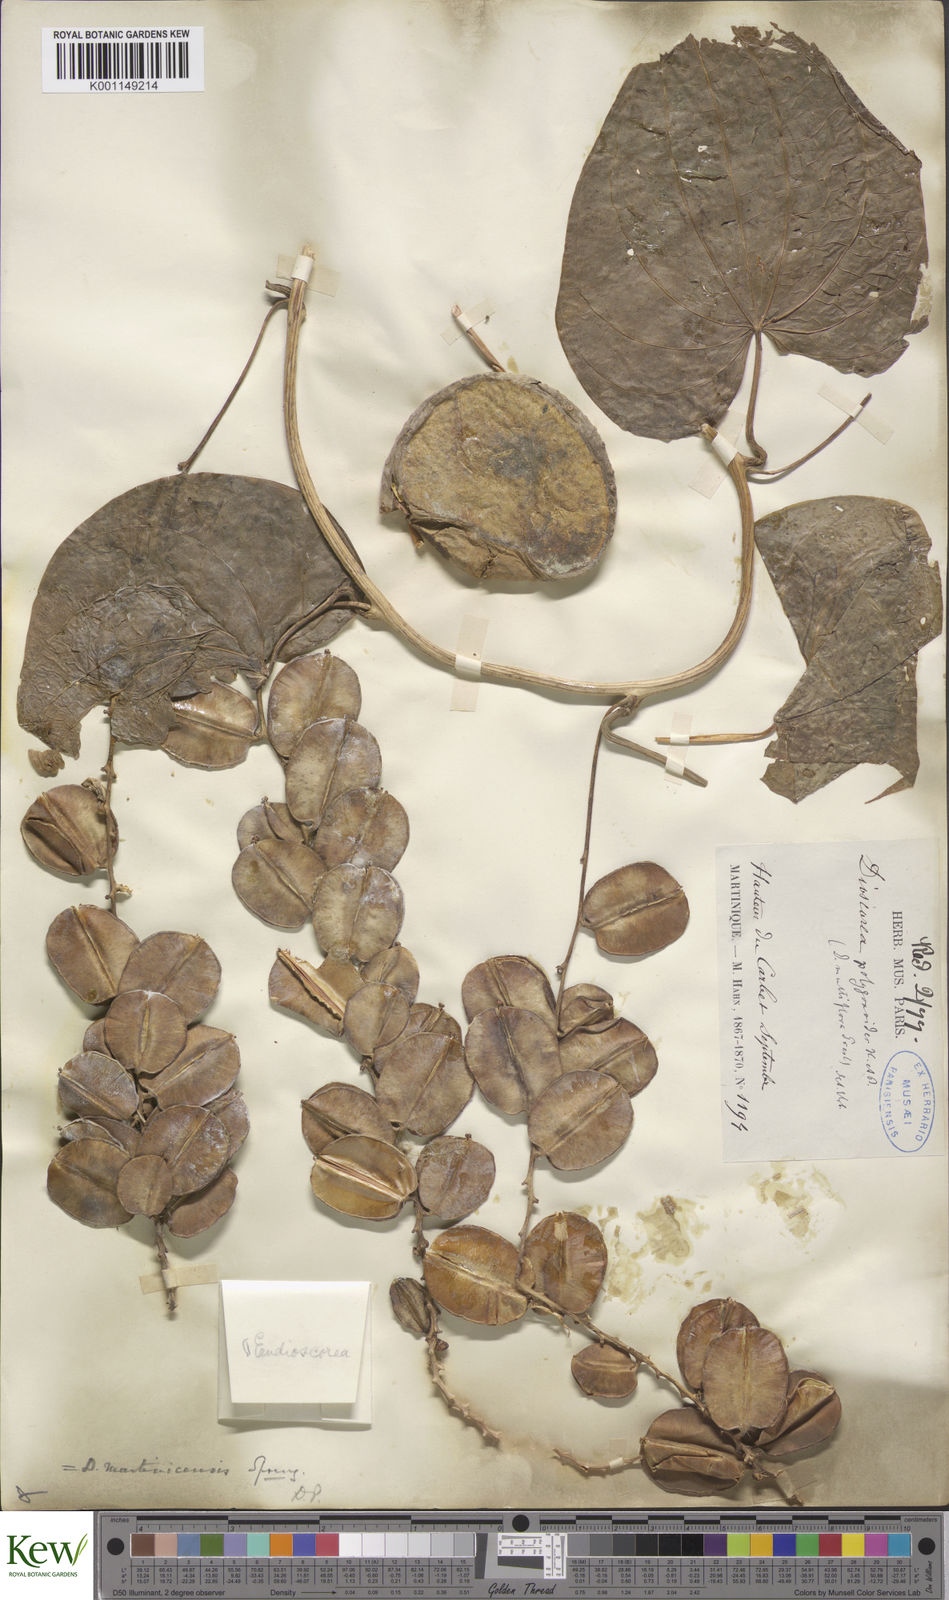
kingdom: Plantae
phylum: Tracheophyta
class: Liliopsida
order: Dioscoreales
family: Dioscoreaceae
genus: Dioscorea
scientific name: Dioscorea polygonoides
